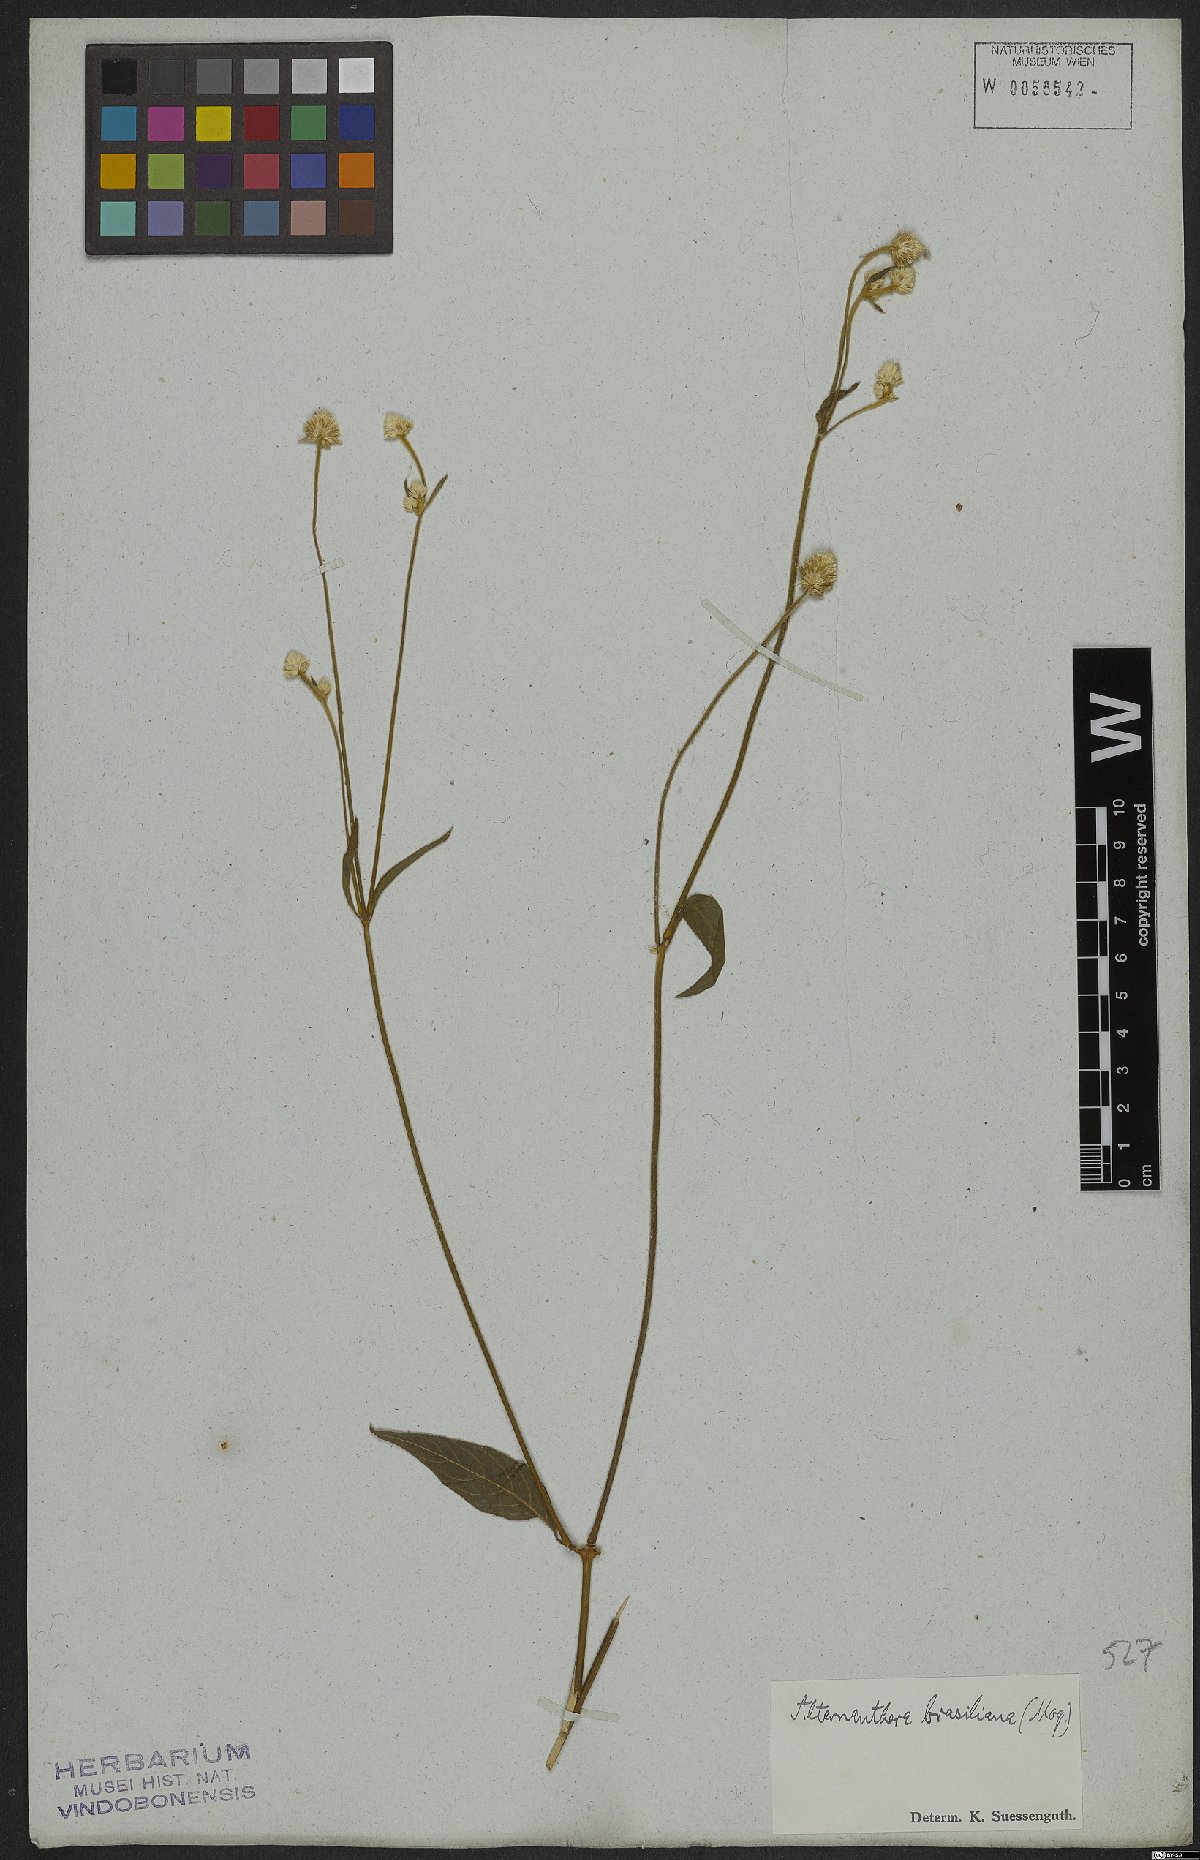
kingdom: Plantae
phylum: Tracheophyta
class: Magnoliopsida
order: Caryophyllales
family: Amaranthaceae
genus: Alternanthera
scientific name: Alternanthera brasiliana
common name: Brazilian joyweed
